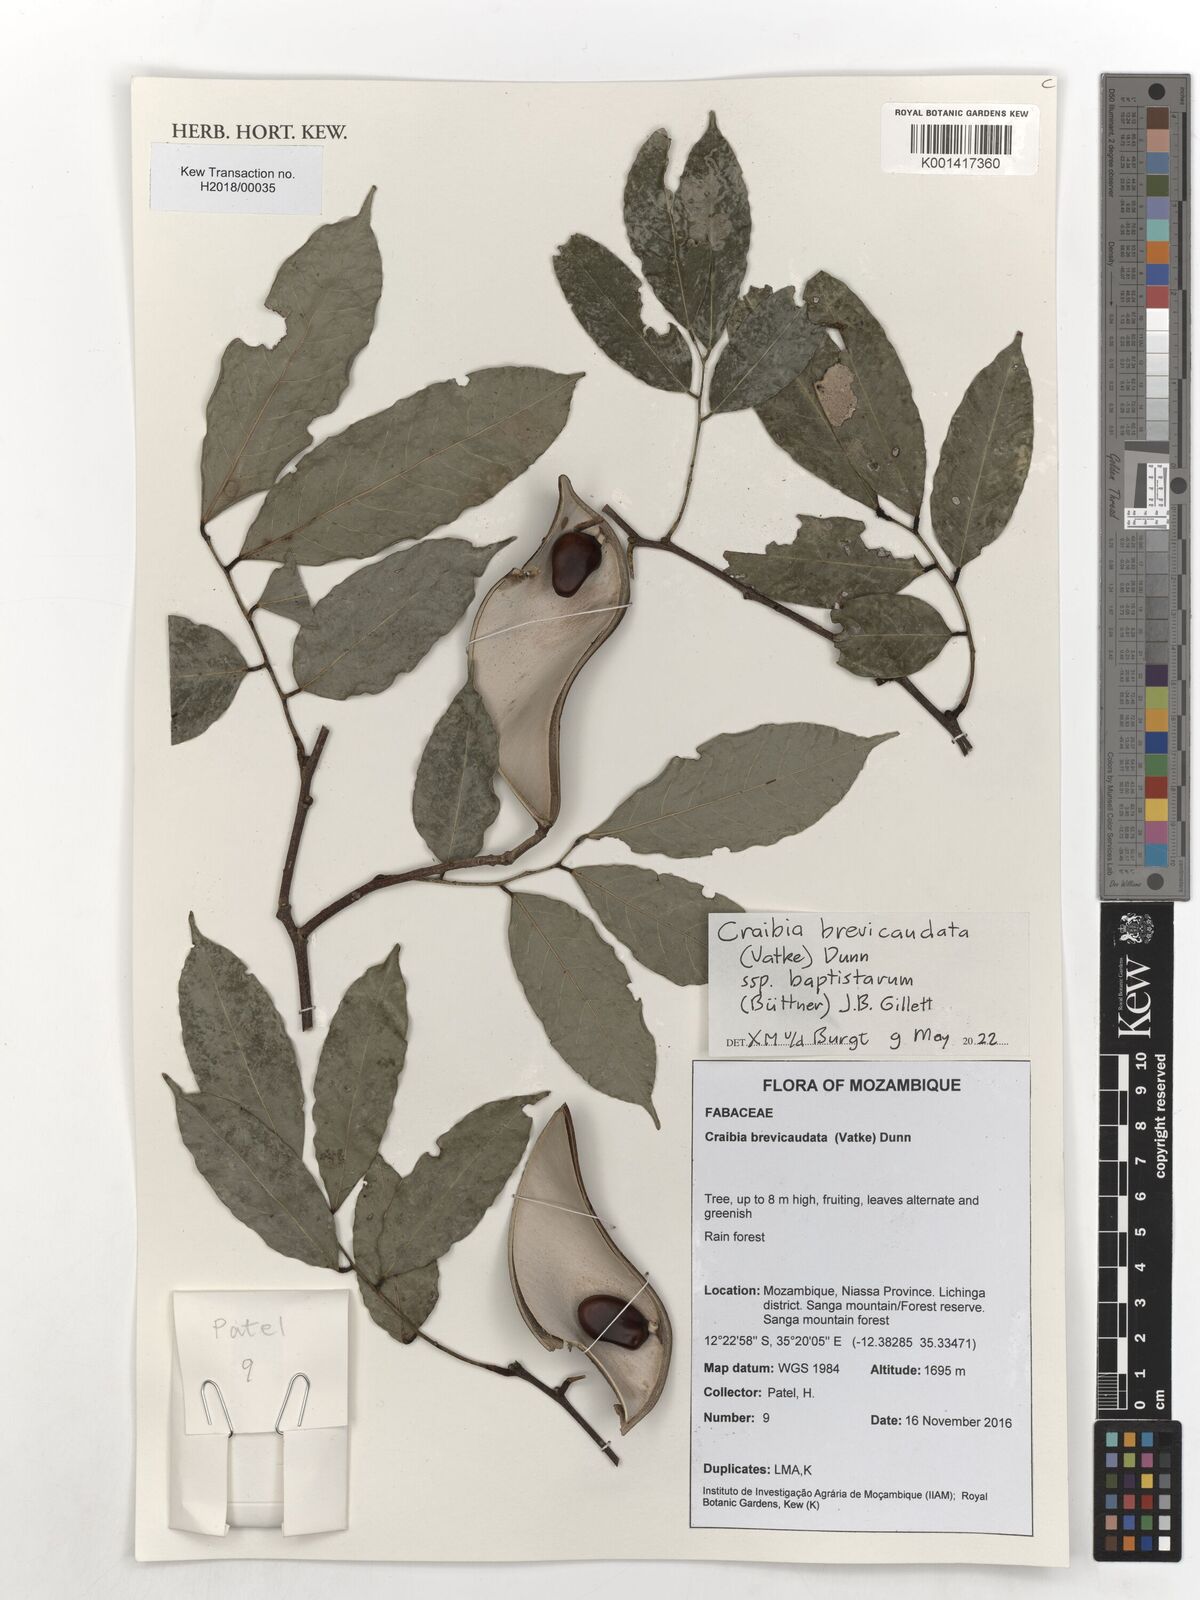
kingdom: Plantae
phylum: Tracheophyta
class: Magnoliopsida
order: Fabales
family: Fabaceae
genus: Craibia
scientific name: Craibia brevicaudata
